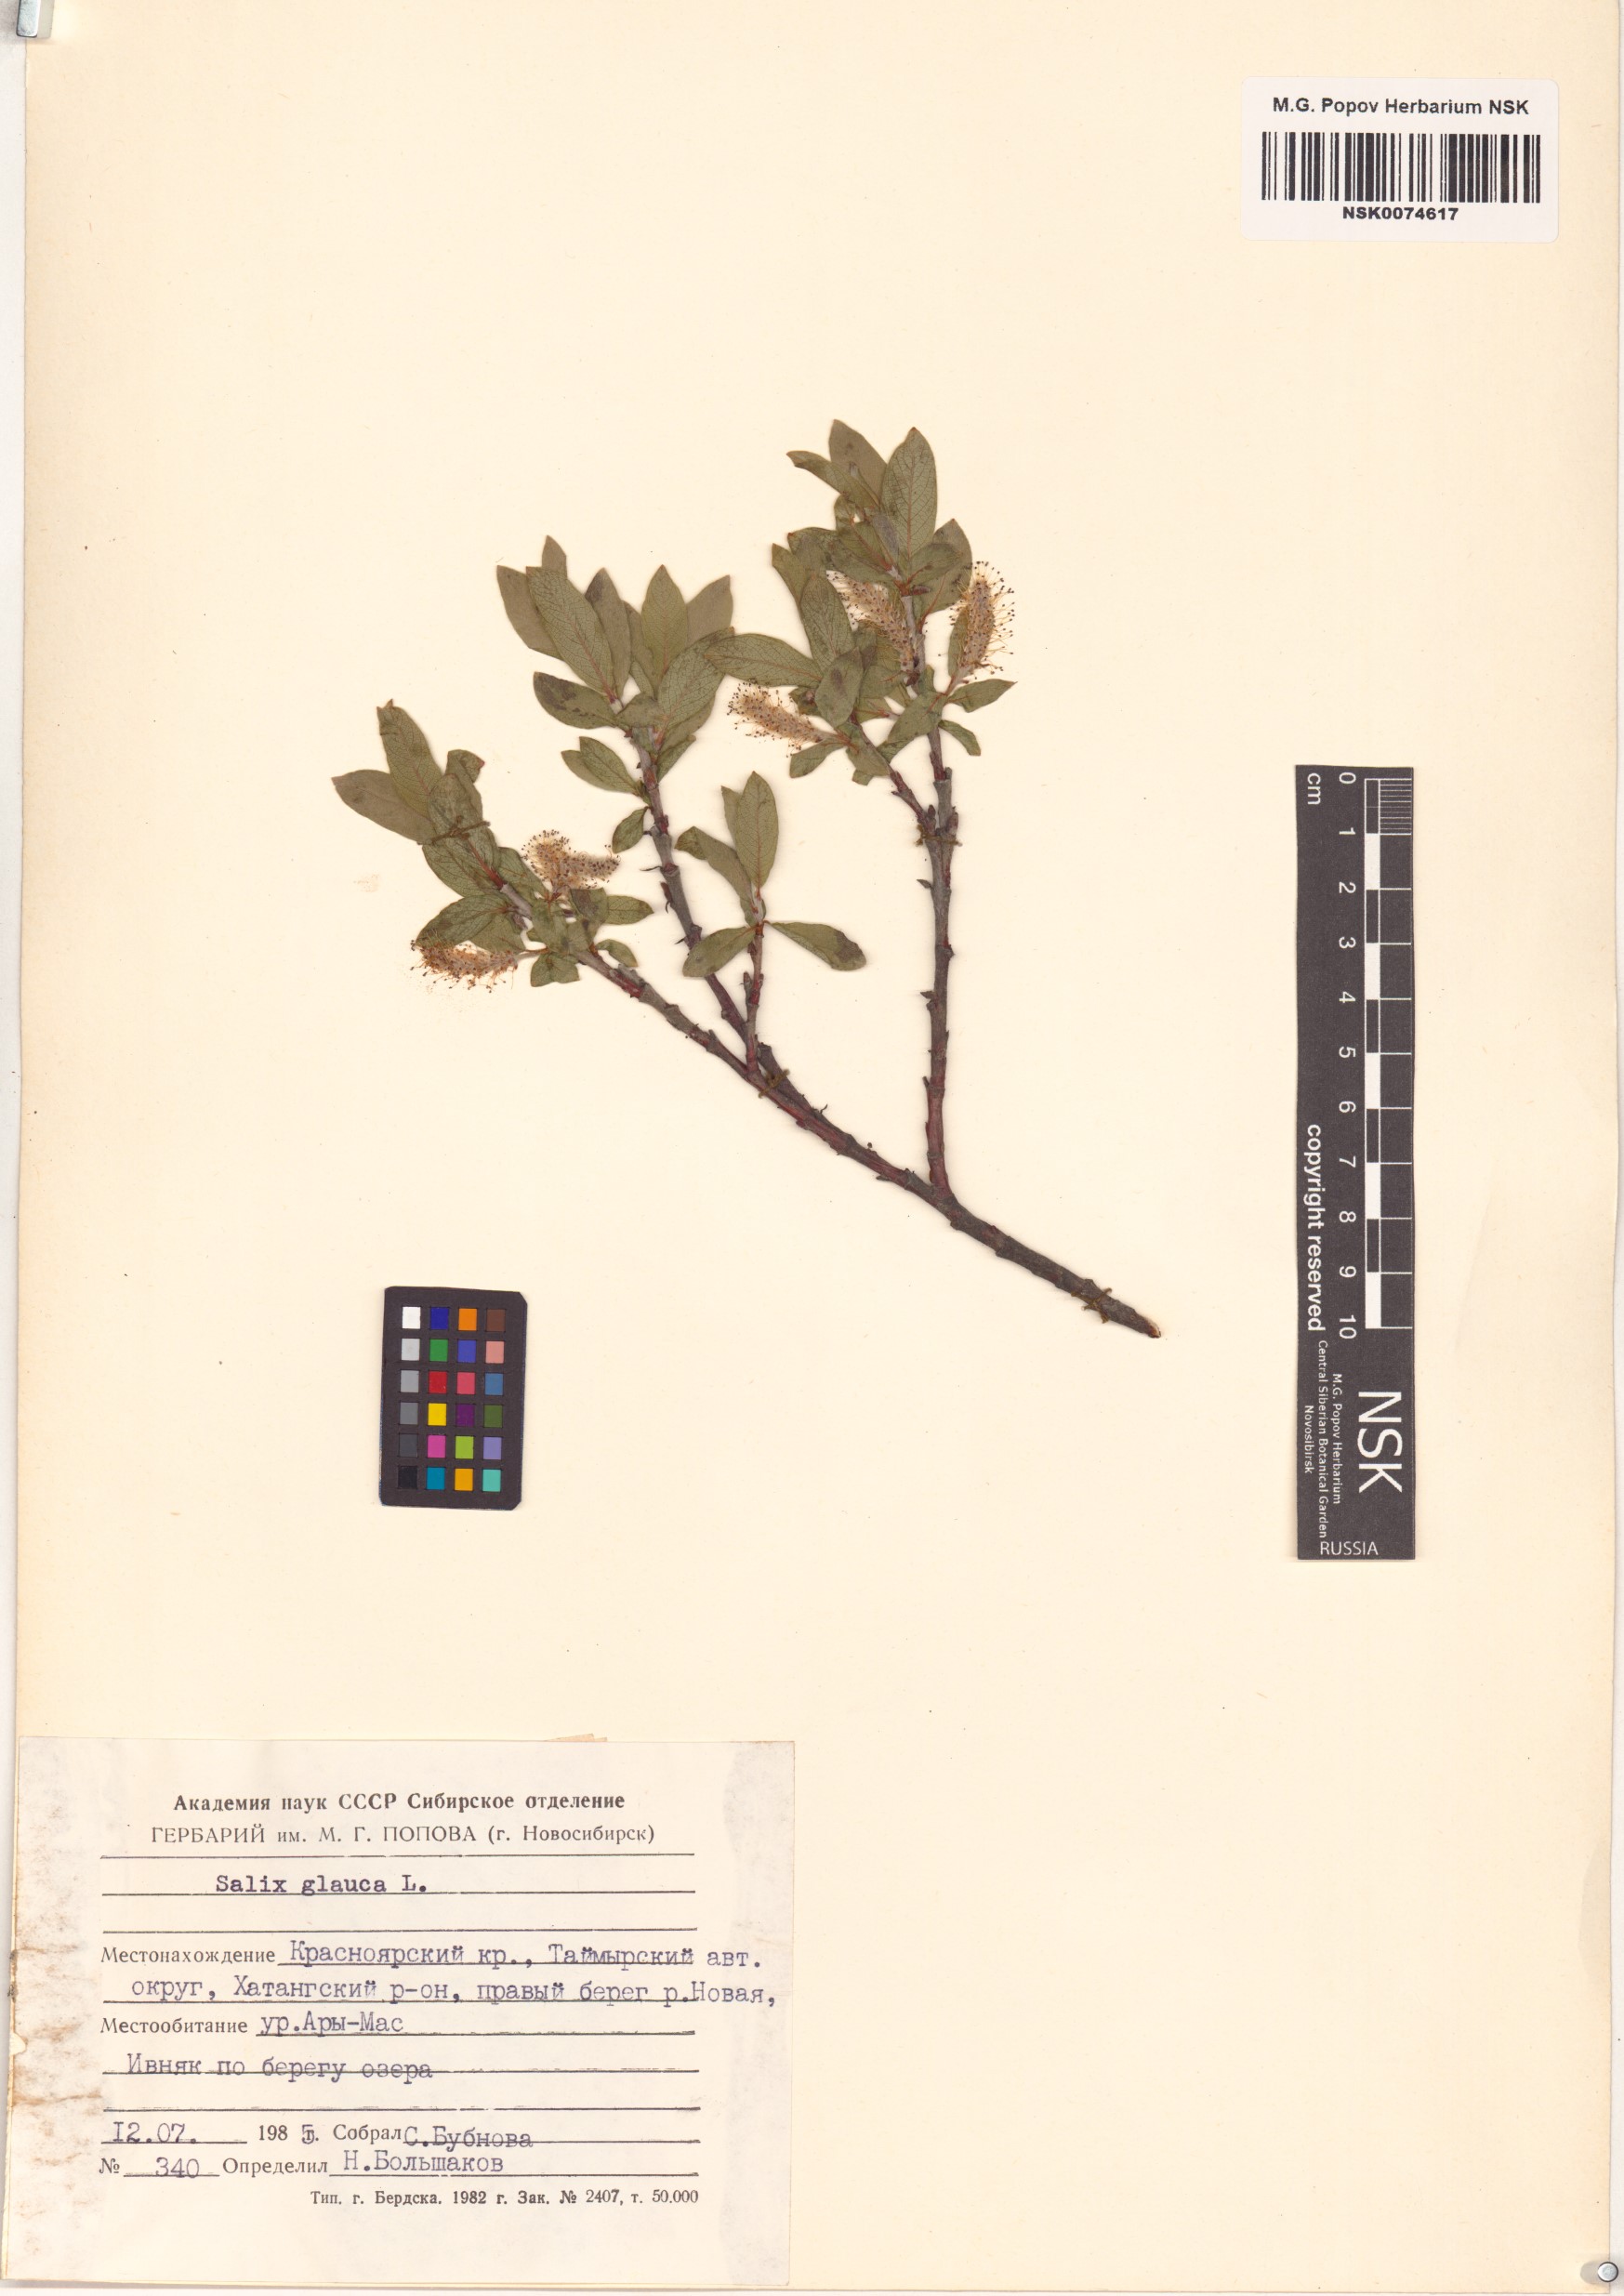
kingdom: Plantae
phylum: Tracheophyta
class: Magnoliopsida
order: Malpighiales
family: Salicaceae
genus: Salix
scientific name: Salix glauca
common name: Glaucous willow
